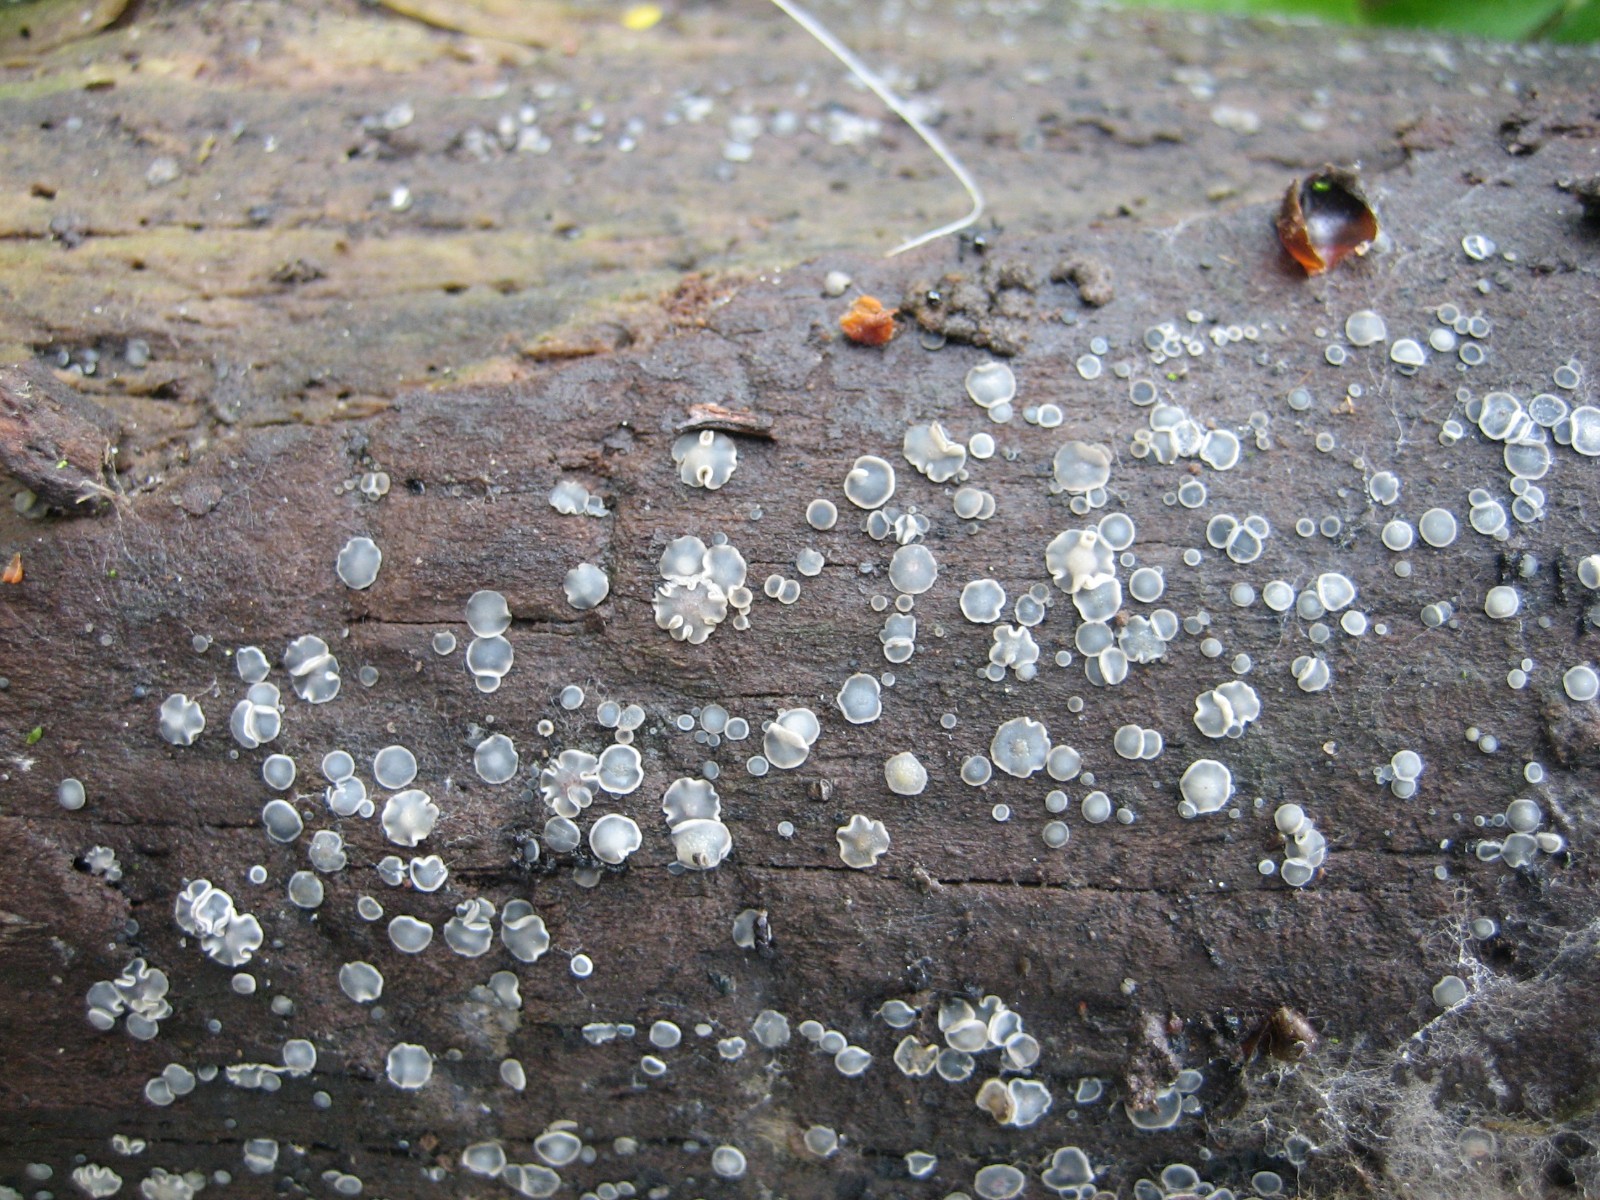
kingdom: Fungi
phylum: Ascomycota
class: Leotiomycetes
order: Helotiales
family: Mollisiaceae
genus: Mollisia
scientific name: Mollisia cinerea
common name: almindelig gråskive
